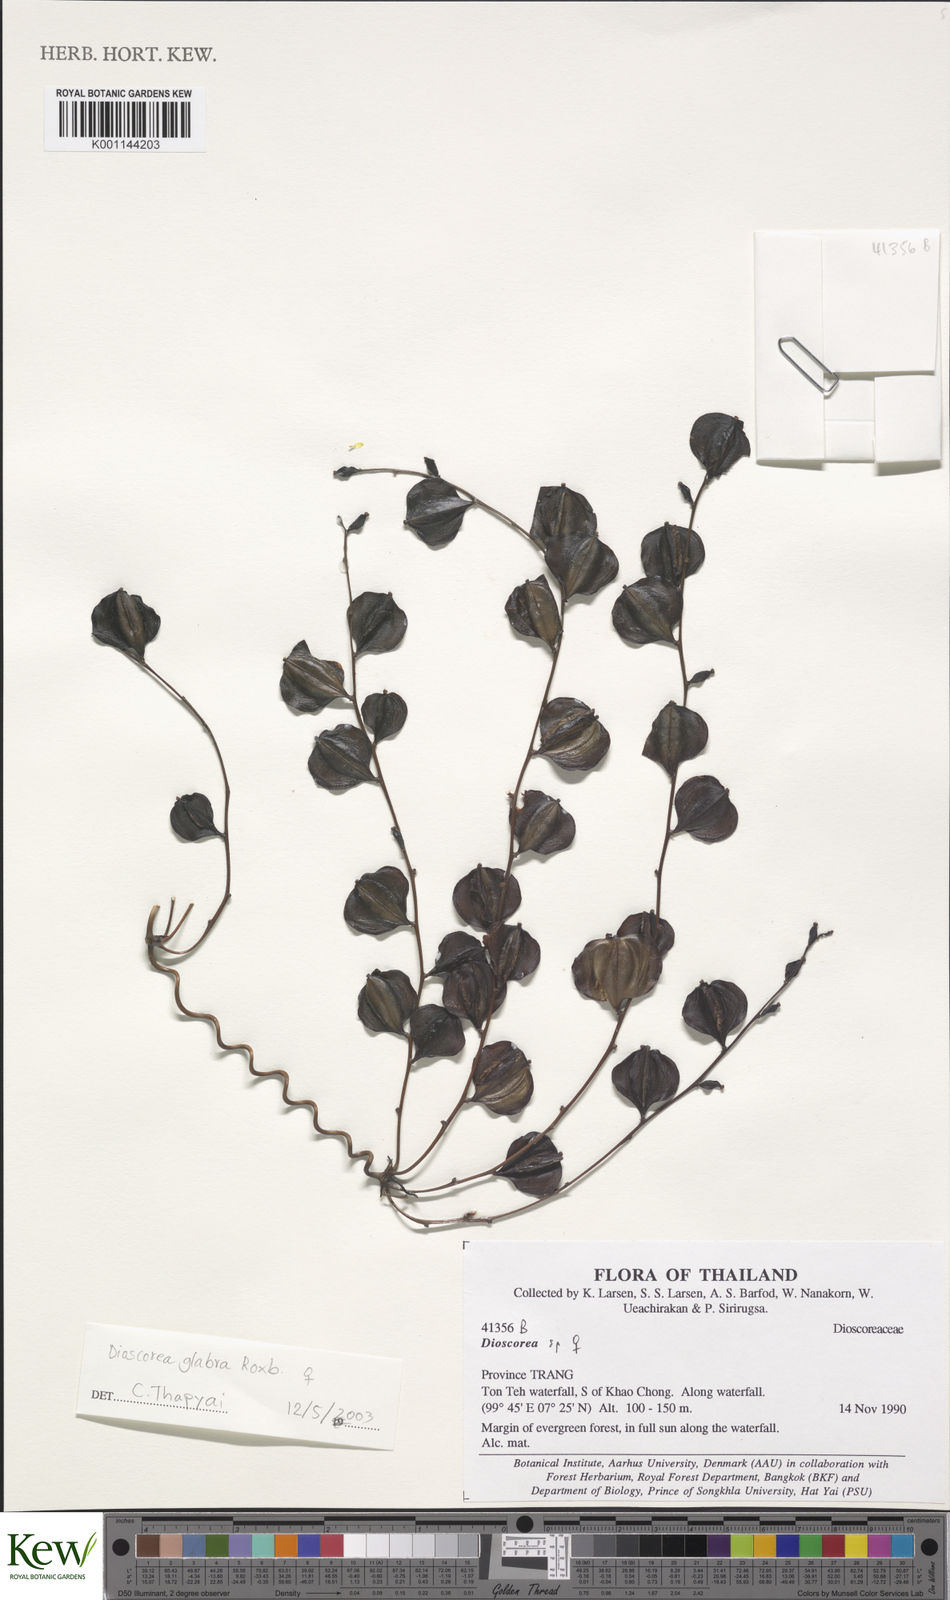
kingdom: Plantae
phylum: Tracheophyta
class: Liliopsida
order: Dioscoreales
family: Dioscoreaceae
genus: Dioscorea
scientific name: Dioscorea
